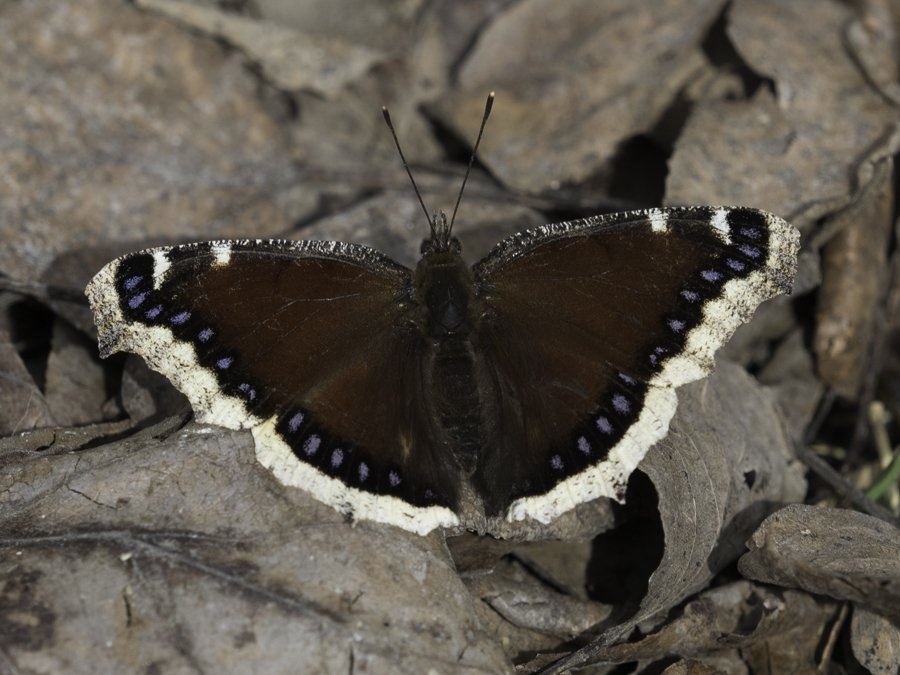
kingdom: Animalia
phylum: Arthropoda
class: Insecta
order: Lepidoptera
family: Nymphalidae
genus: Nymphalis
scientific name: Nymphalis antiopa
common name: Mourning Cloak
